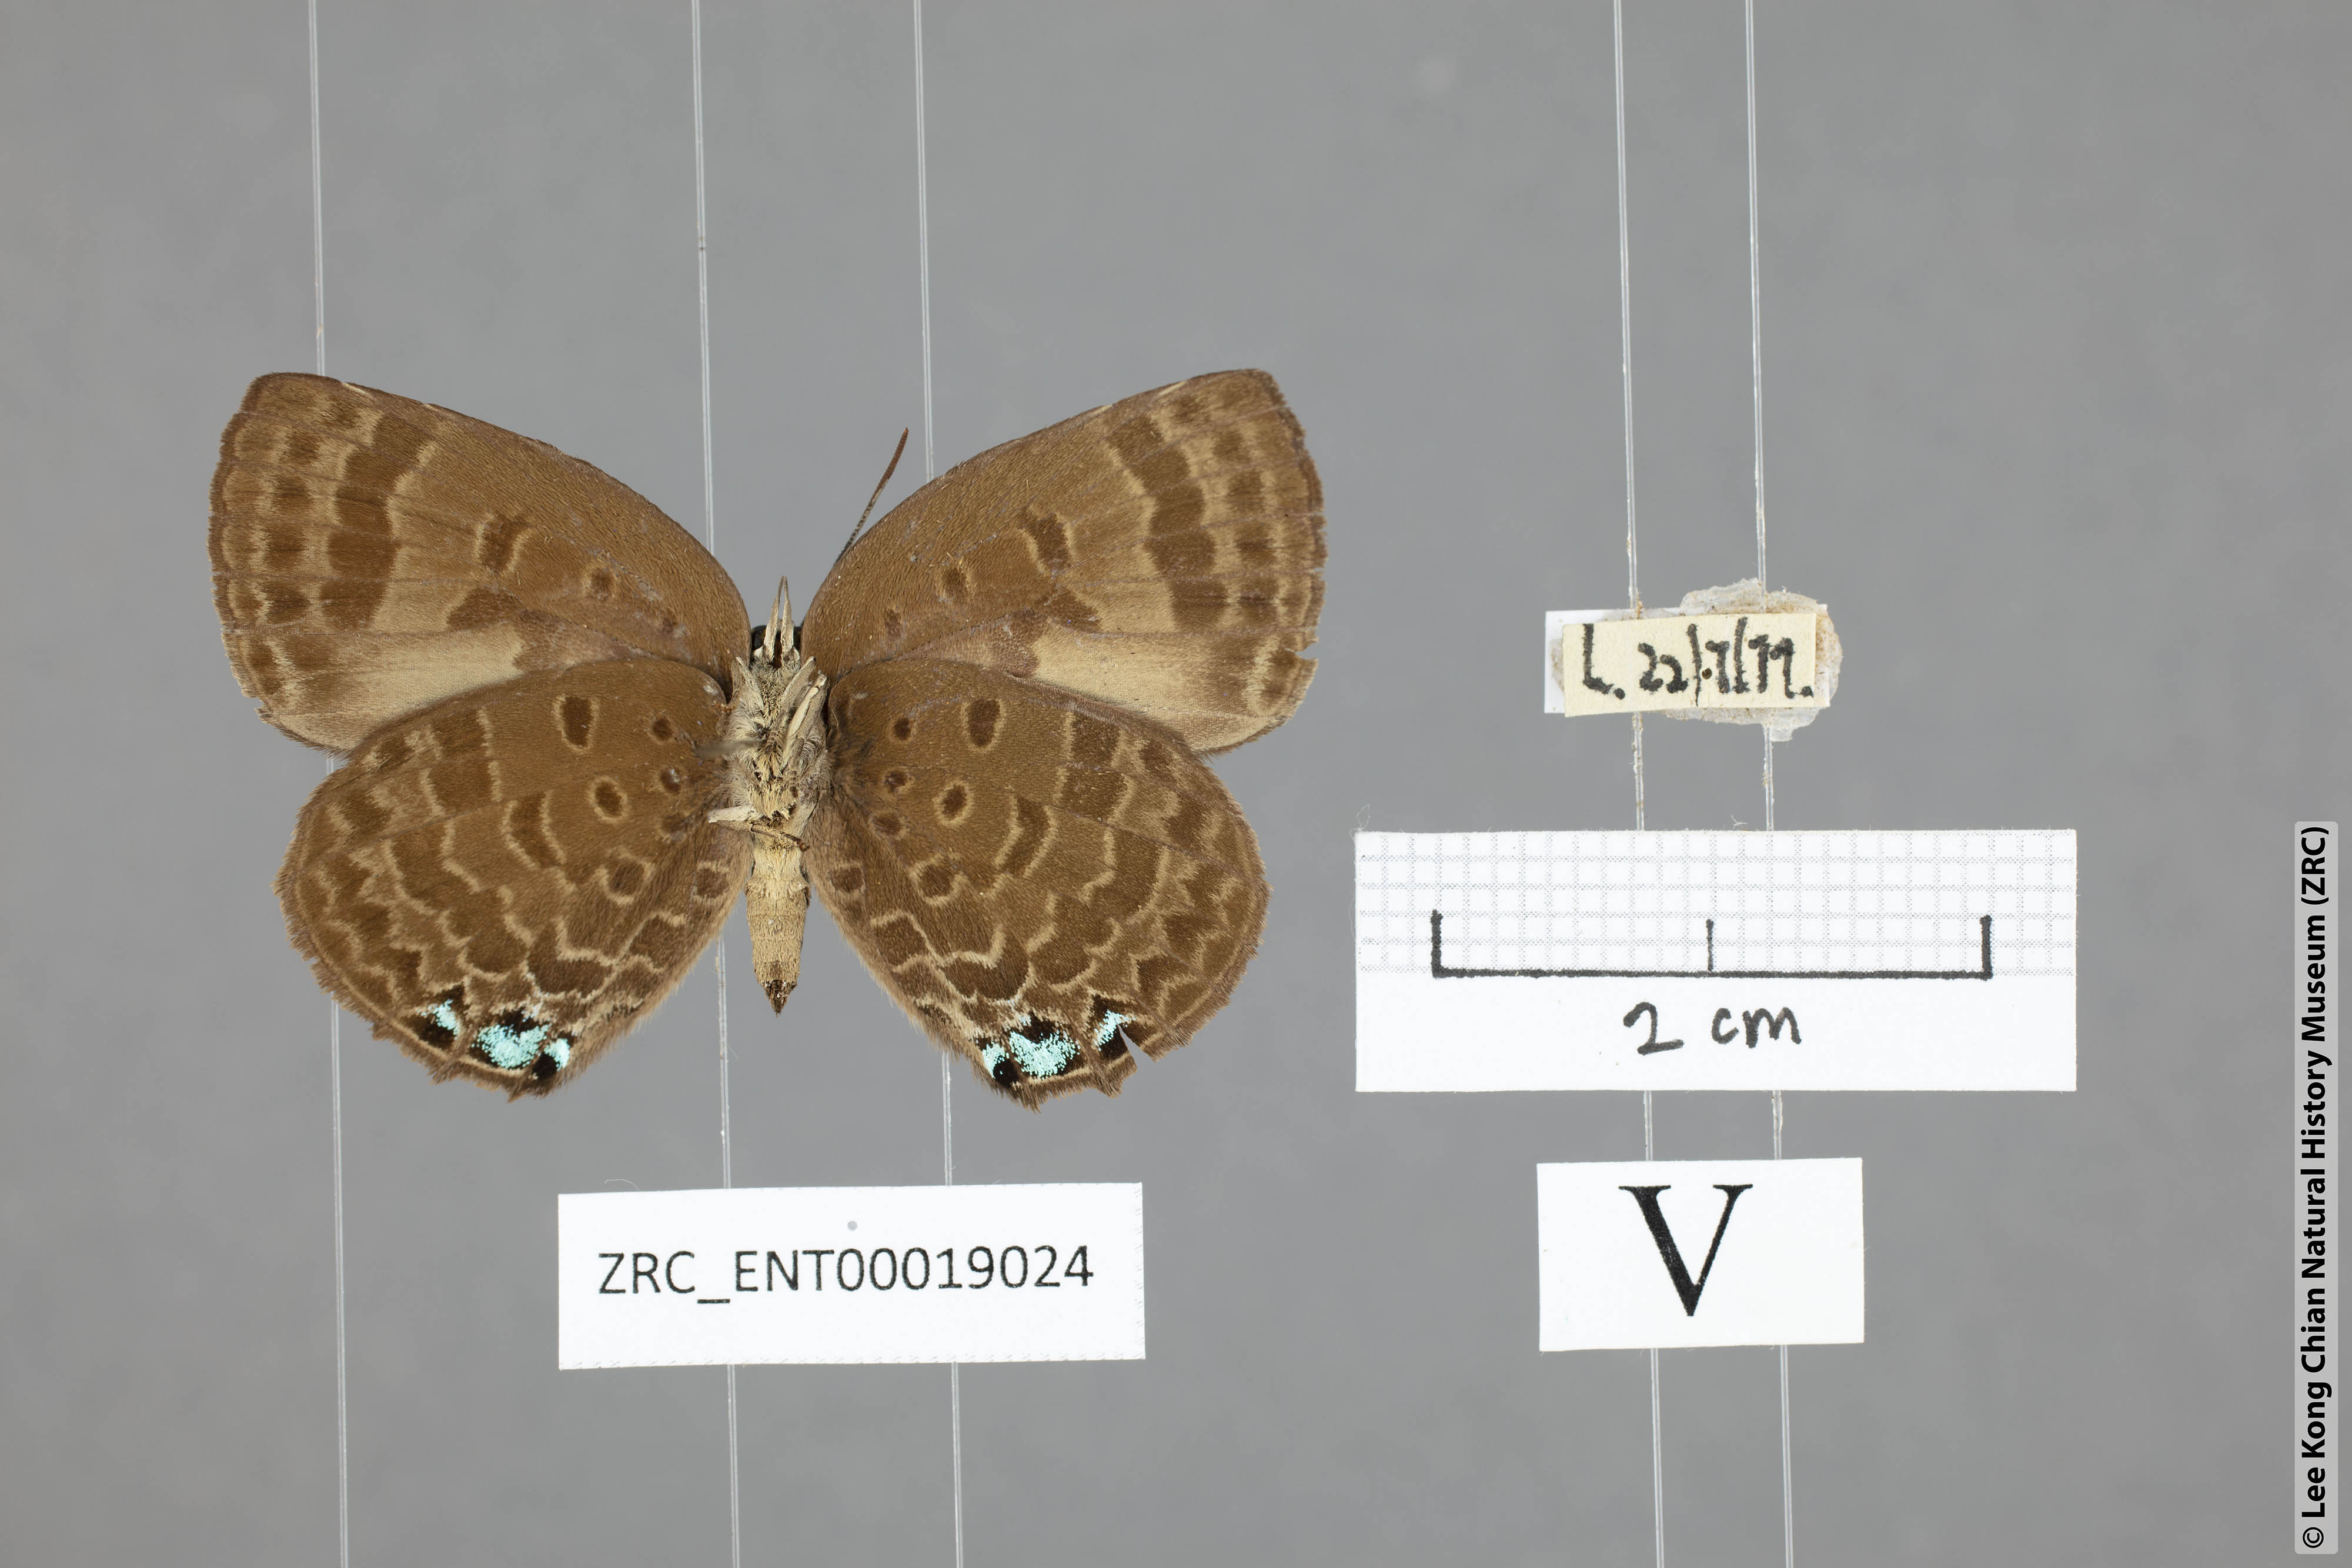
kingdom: Animalia
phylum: Arthropoda
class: Insecta
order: Lepidoptera
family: Lycaenidae
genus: Arhopala
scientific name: Arhopala agelastus
